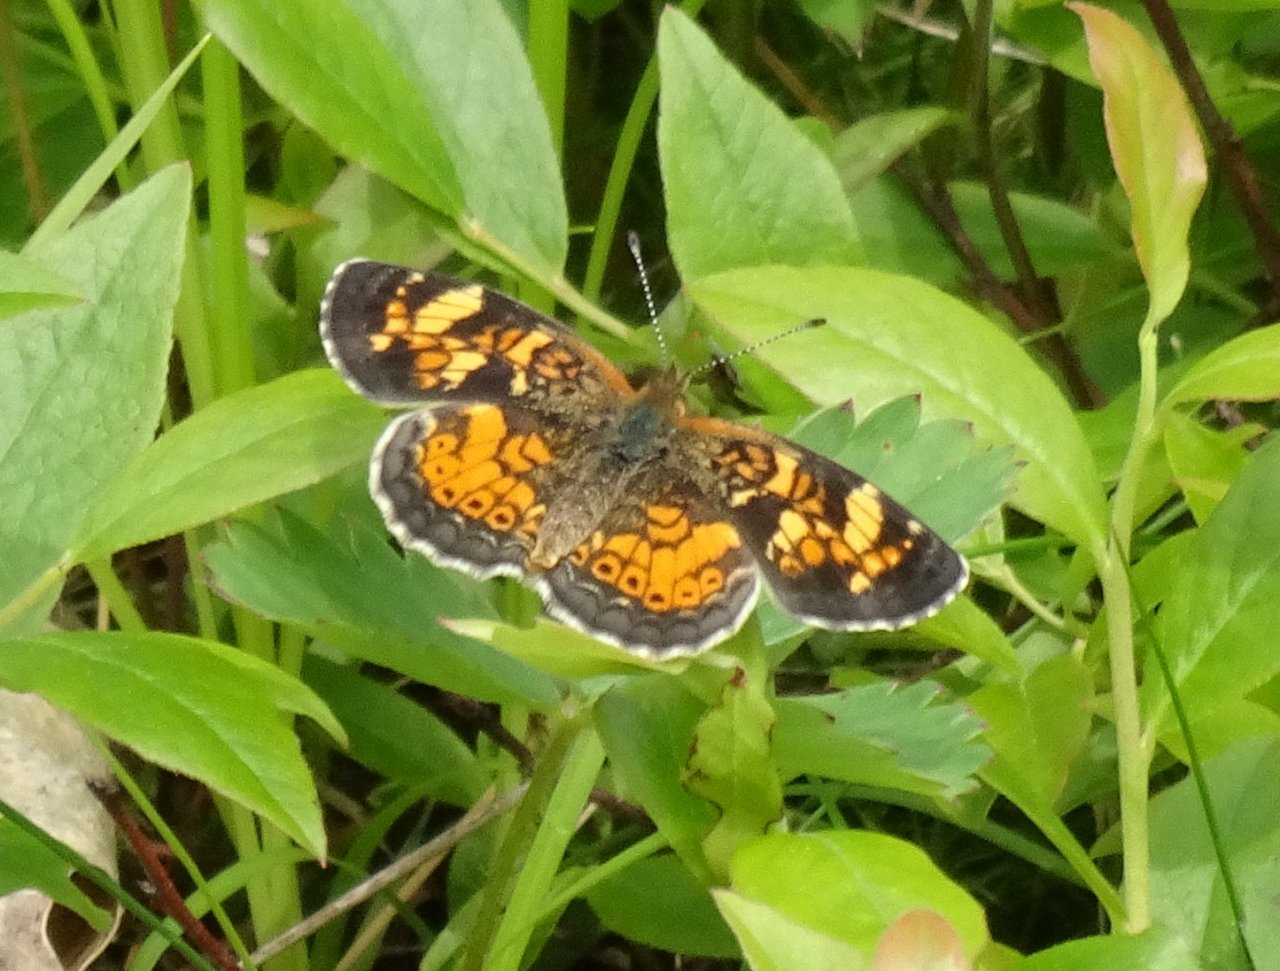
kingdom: Animalia
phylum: Arthropoda
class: Insecta
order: Lepidoptera
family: Nymphalidae
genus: Phyciodes
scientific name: Phyciodes tharos
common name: Pearl Crescent
